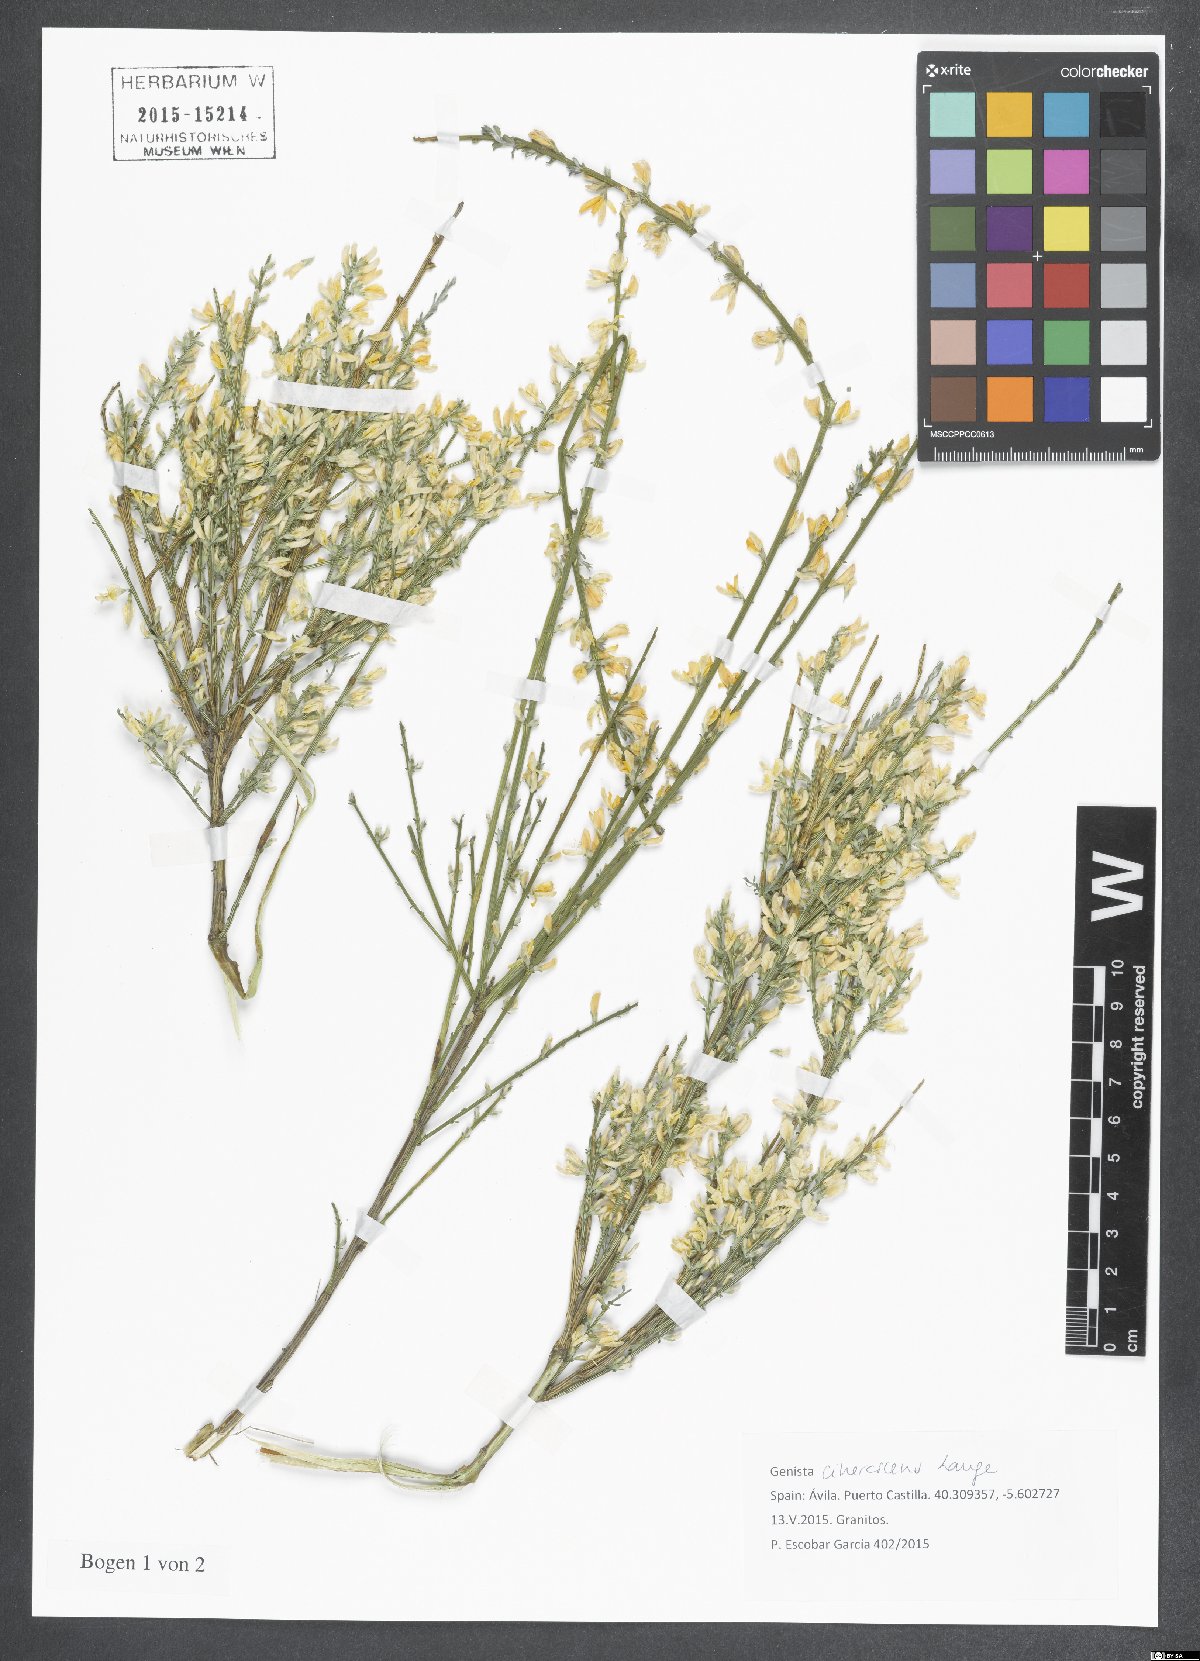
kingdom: Plantae
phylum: Tracheophyta
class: Magnoliopsida
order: Fabales
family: Fabaceae
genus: Genista
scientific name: Genista cinerascens
